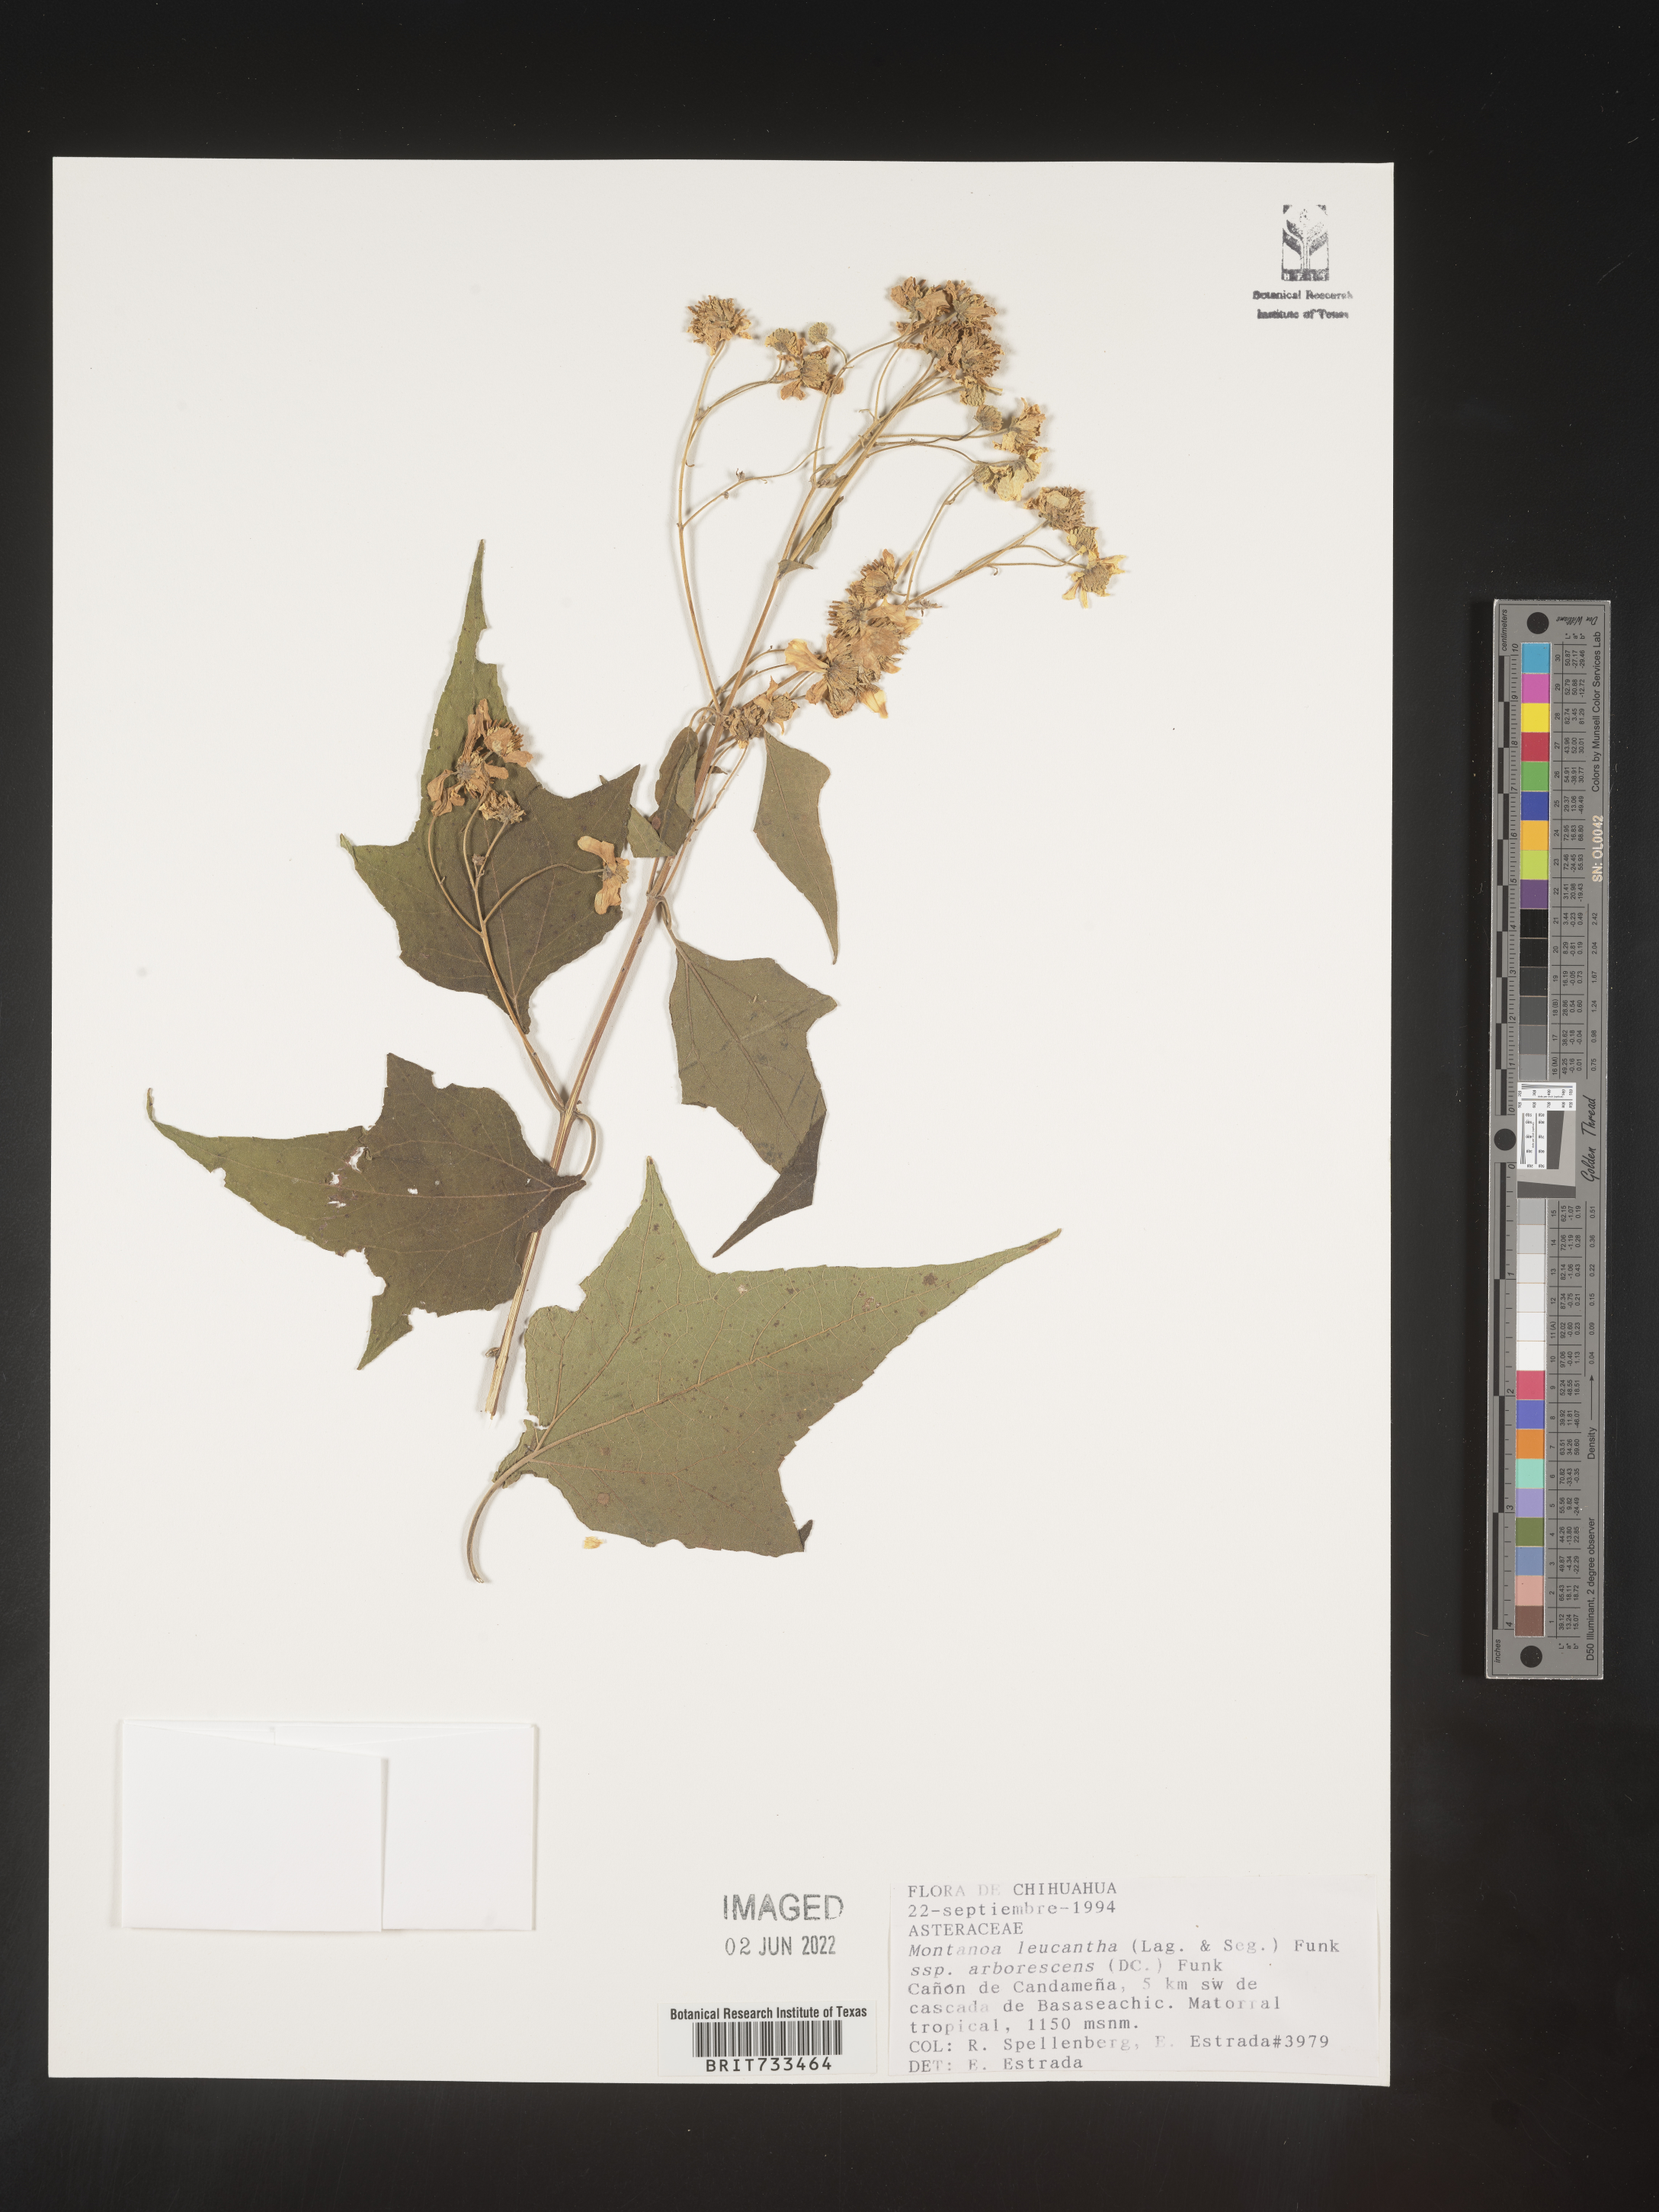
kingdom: Plantae
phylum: Tracheophyta
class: Magnoliopsida
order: Asterales
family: Asteraceae
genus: Montanoa
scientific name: Montanoa
